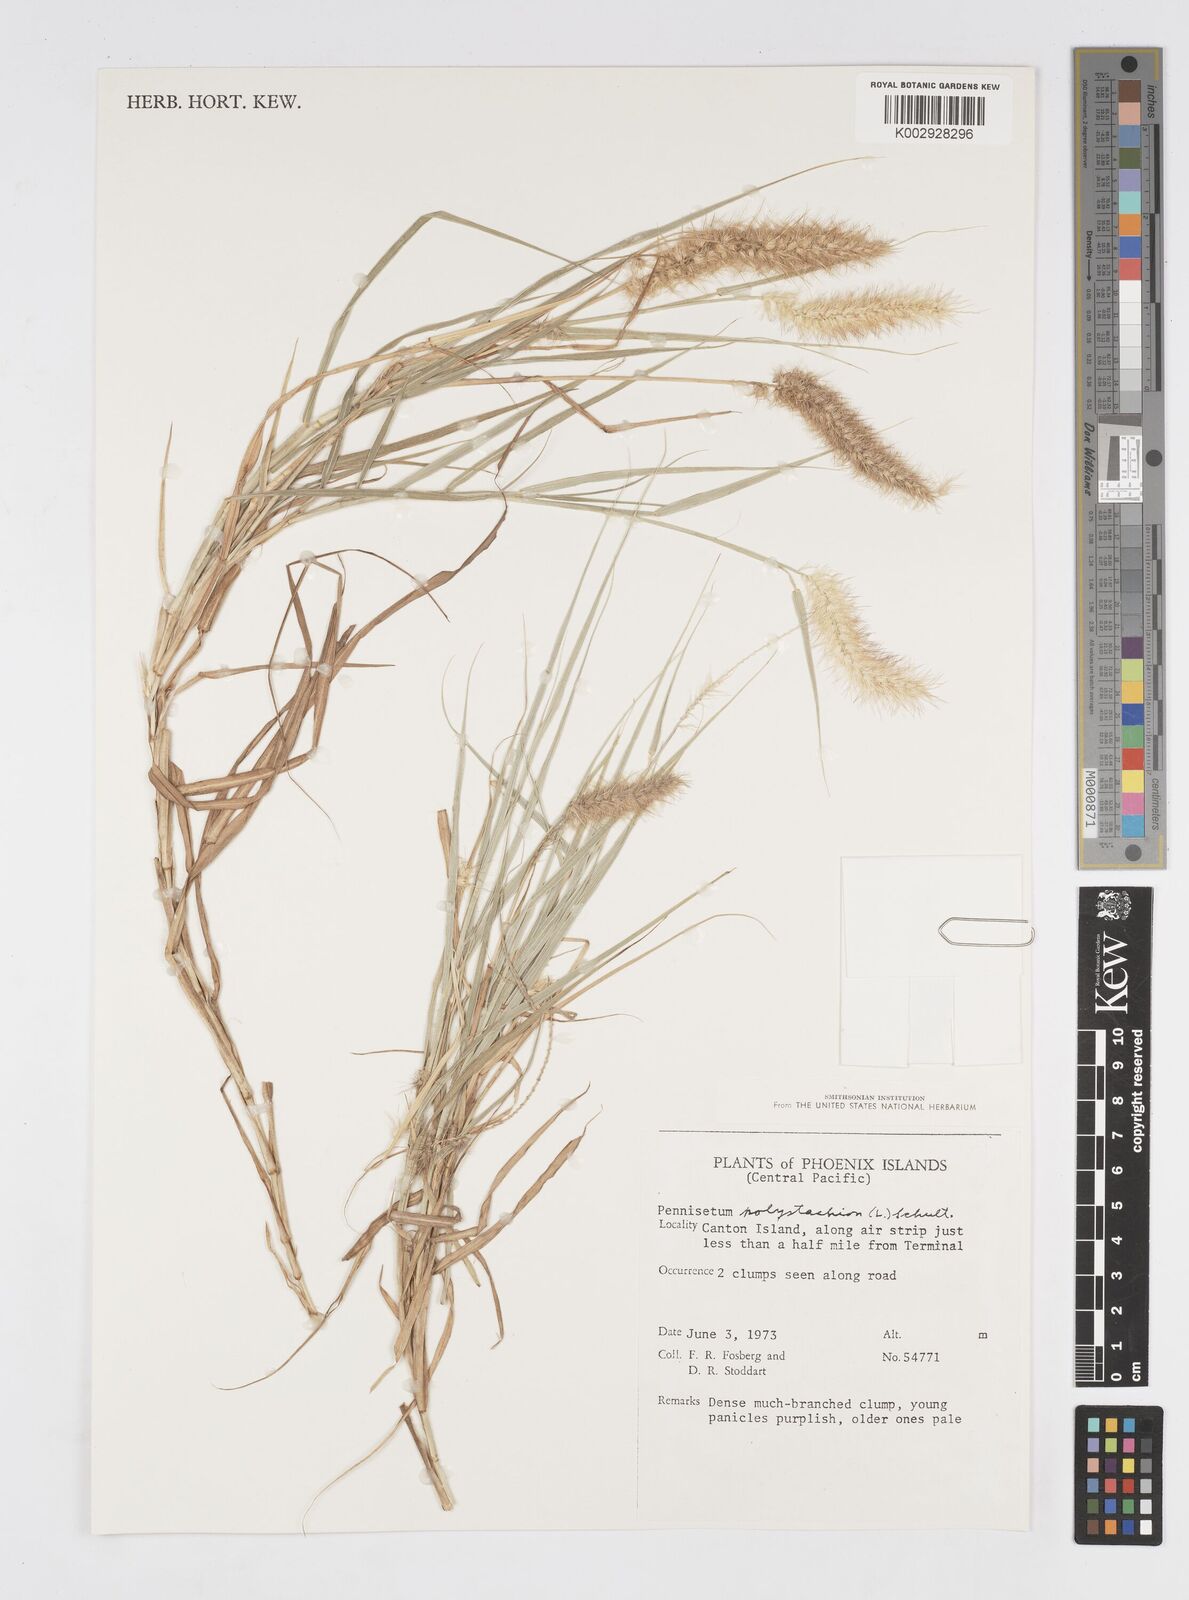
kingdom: Plantae
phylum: Tracheophyta
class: Liliopsida
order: Poales
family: Poaceae
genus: Cenchrus
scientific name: Cenchrus ciliaris
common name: Buffelgrass
